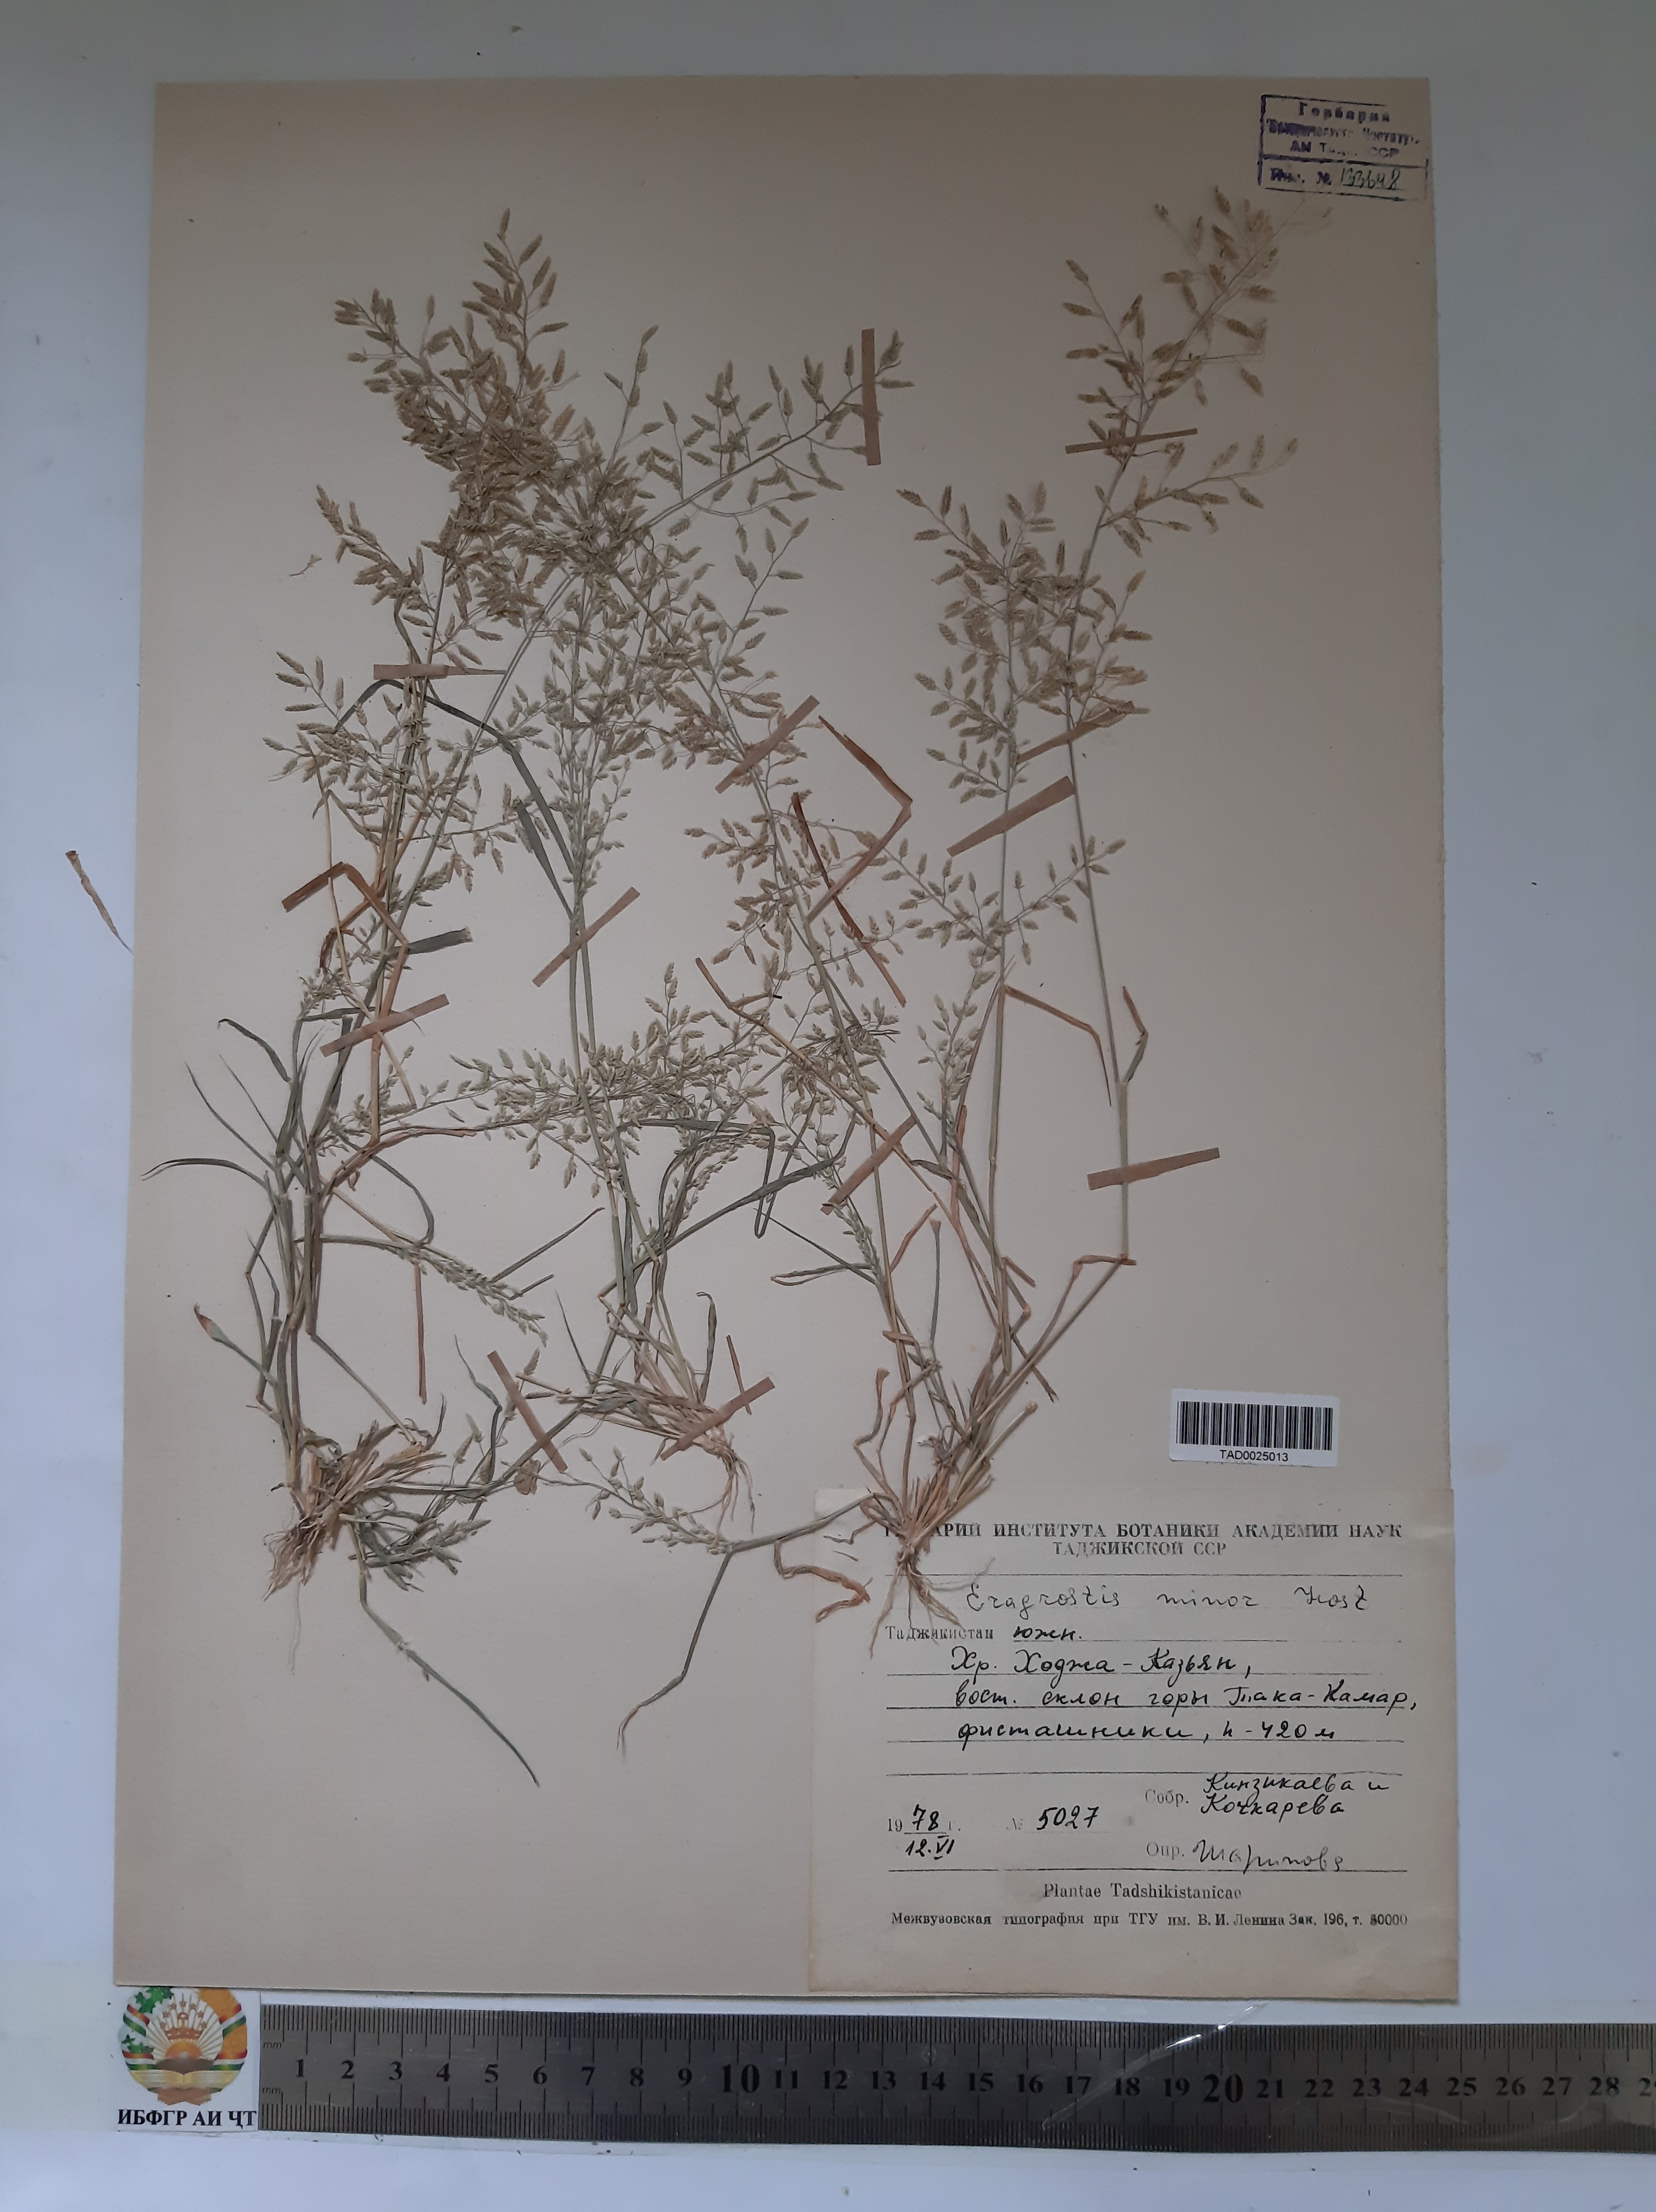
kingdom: Plantae
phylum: Tracheophyta
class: Liliopsida
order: Poales
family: Poaceae
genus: Eragrostis
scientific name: Eragrostis minor
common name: Small love-grass
